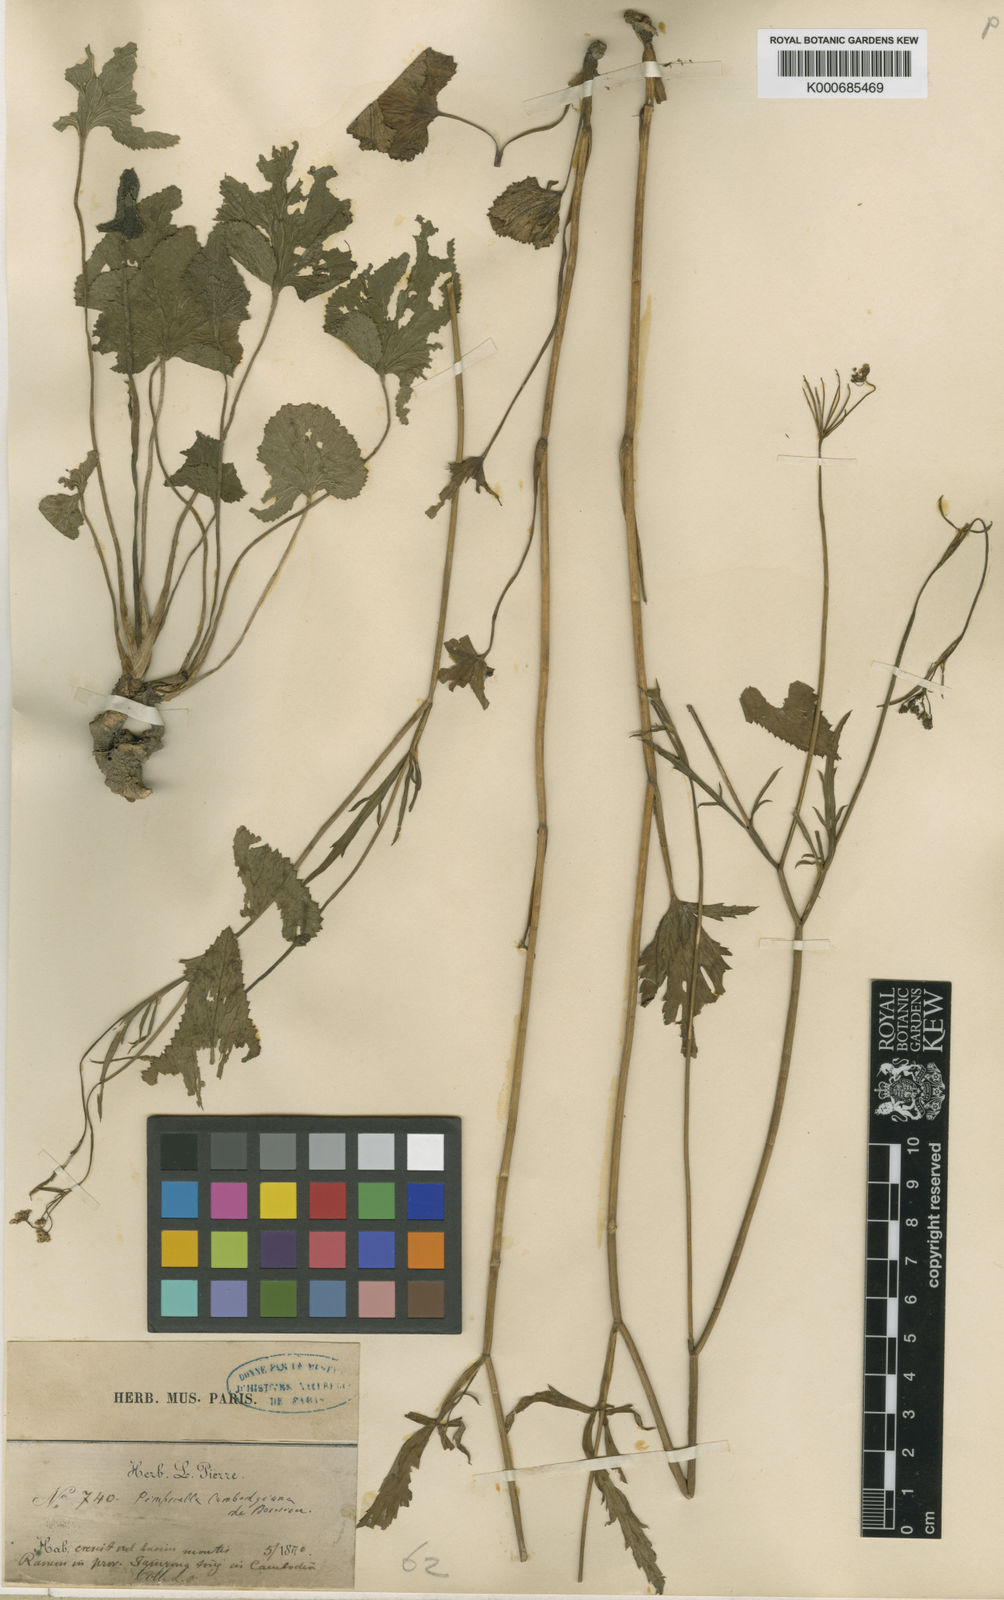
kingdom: Plantae
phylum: Tracheophyta
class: Magnoliopsida
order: Apiales
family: Apiaceae
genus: Pimpinella
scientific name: Pimpinella cambodgiana
